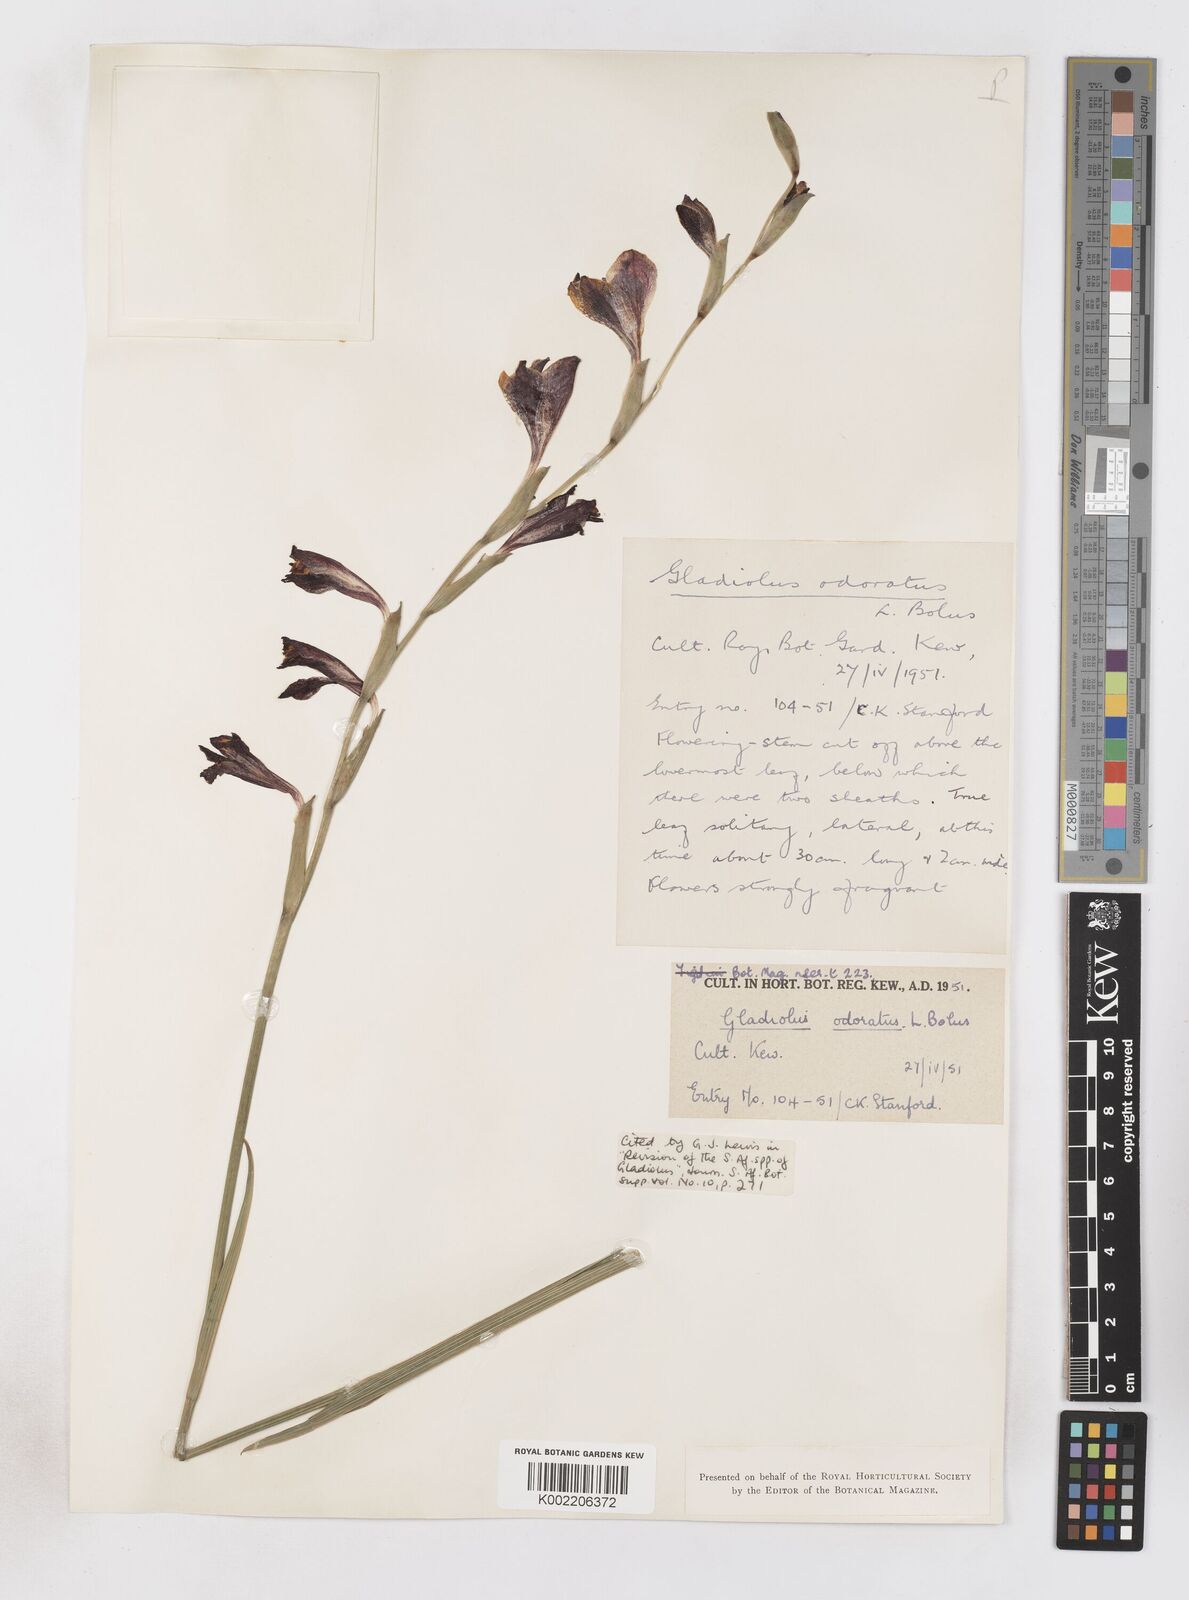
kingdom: Plantae
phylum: Tracheophyta
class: Liliopsida
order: Asparagales
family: Iridaceae
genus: Gladiolus
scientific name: Gladiolus guthriei
